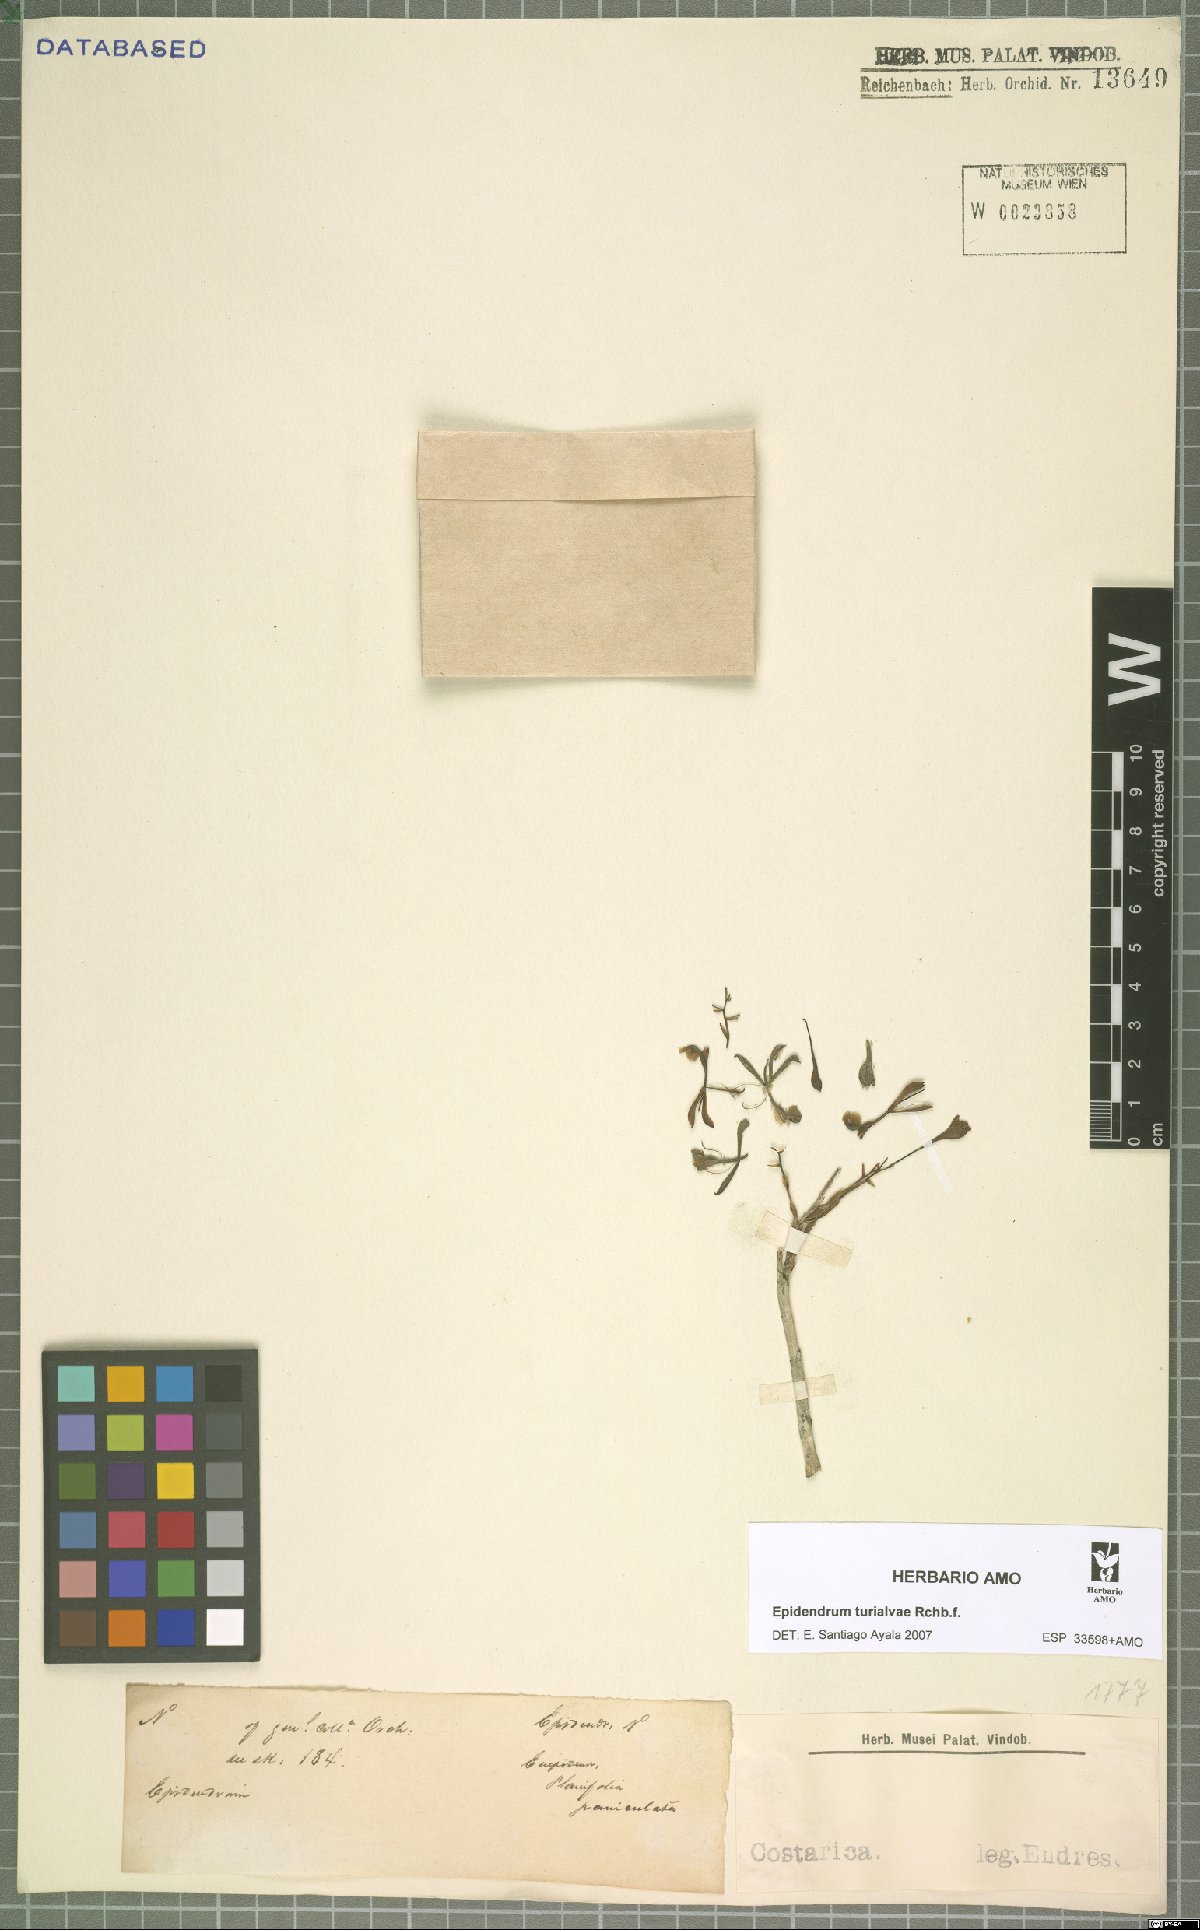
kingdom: Plantae
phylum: Tracheophyta
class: Liliopsida
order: Asparagales
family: Orchidaceae
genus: Epidendrum
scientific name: Epidendrum turialvae
